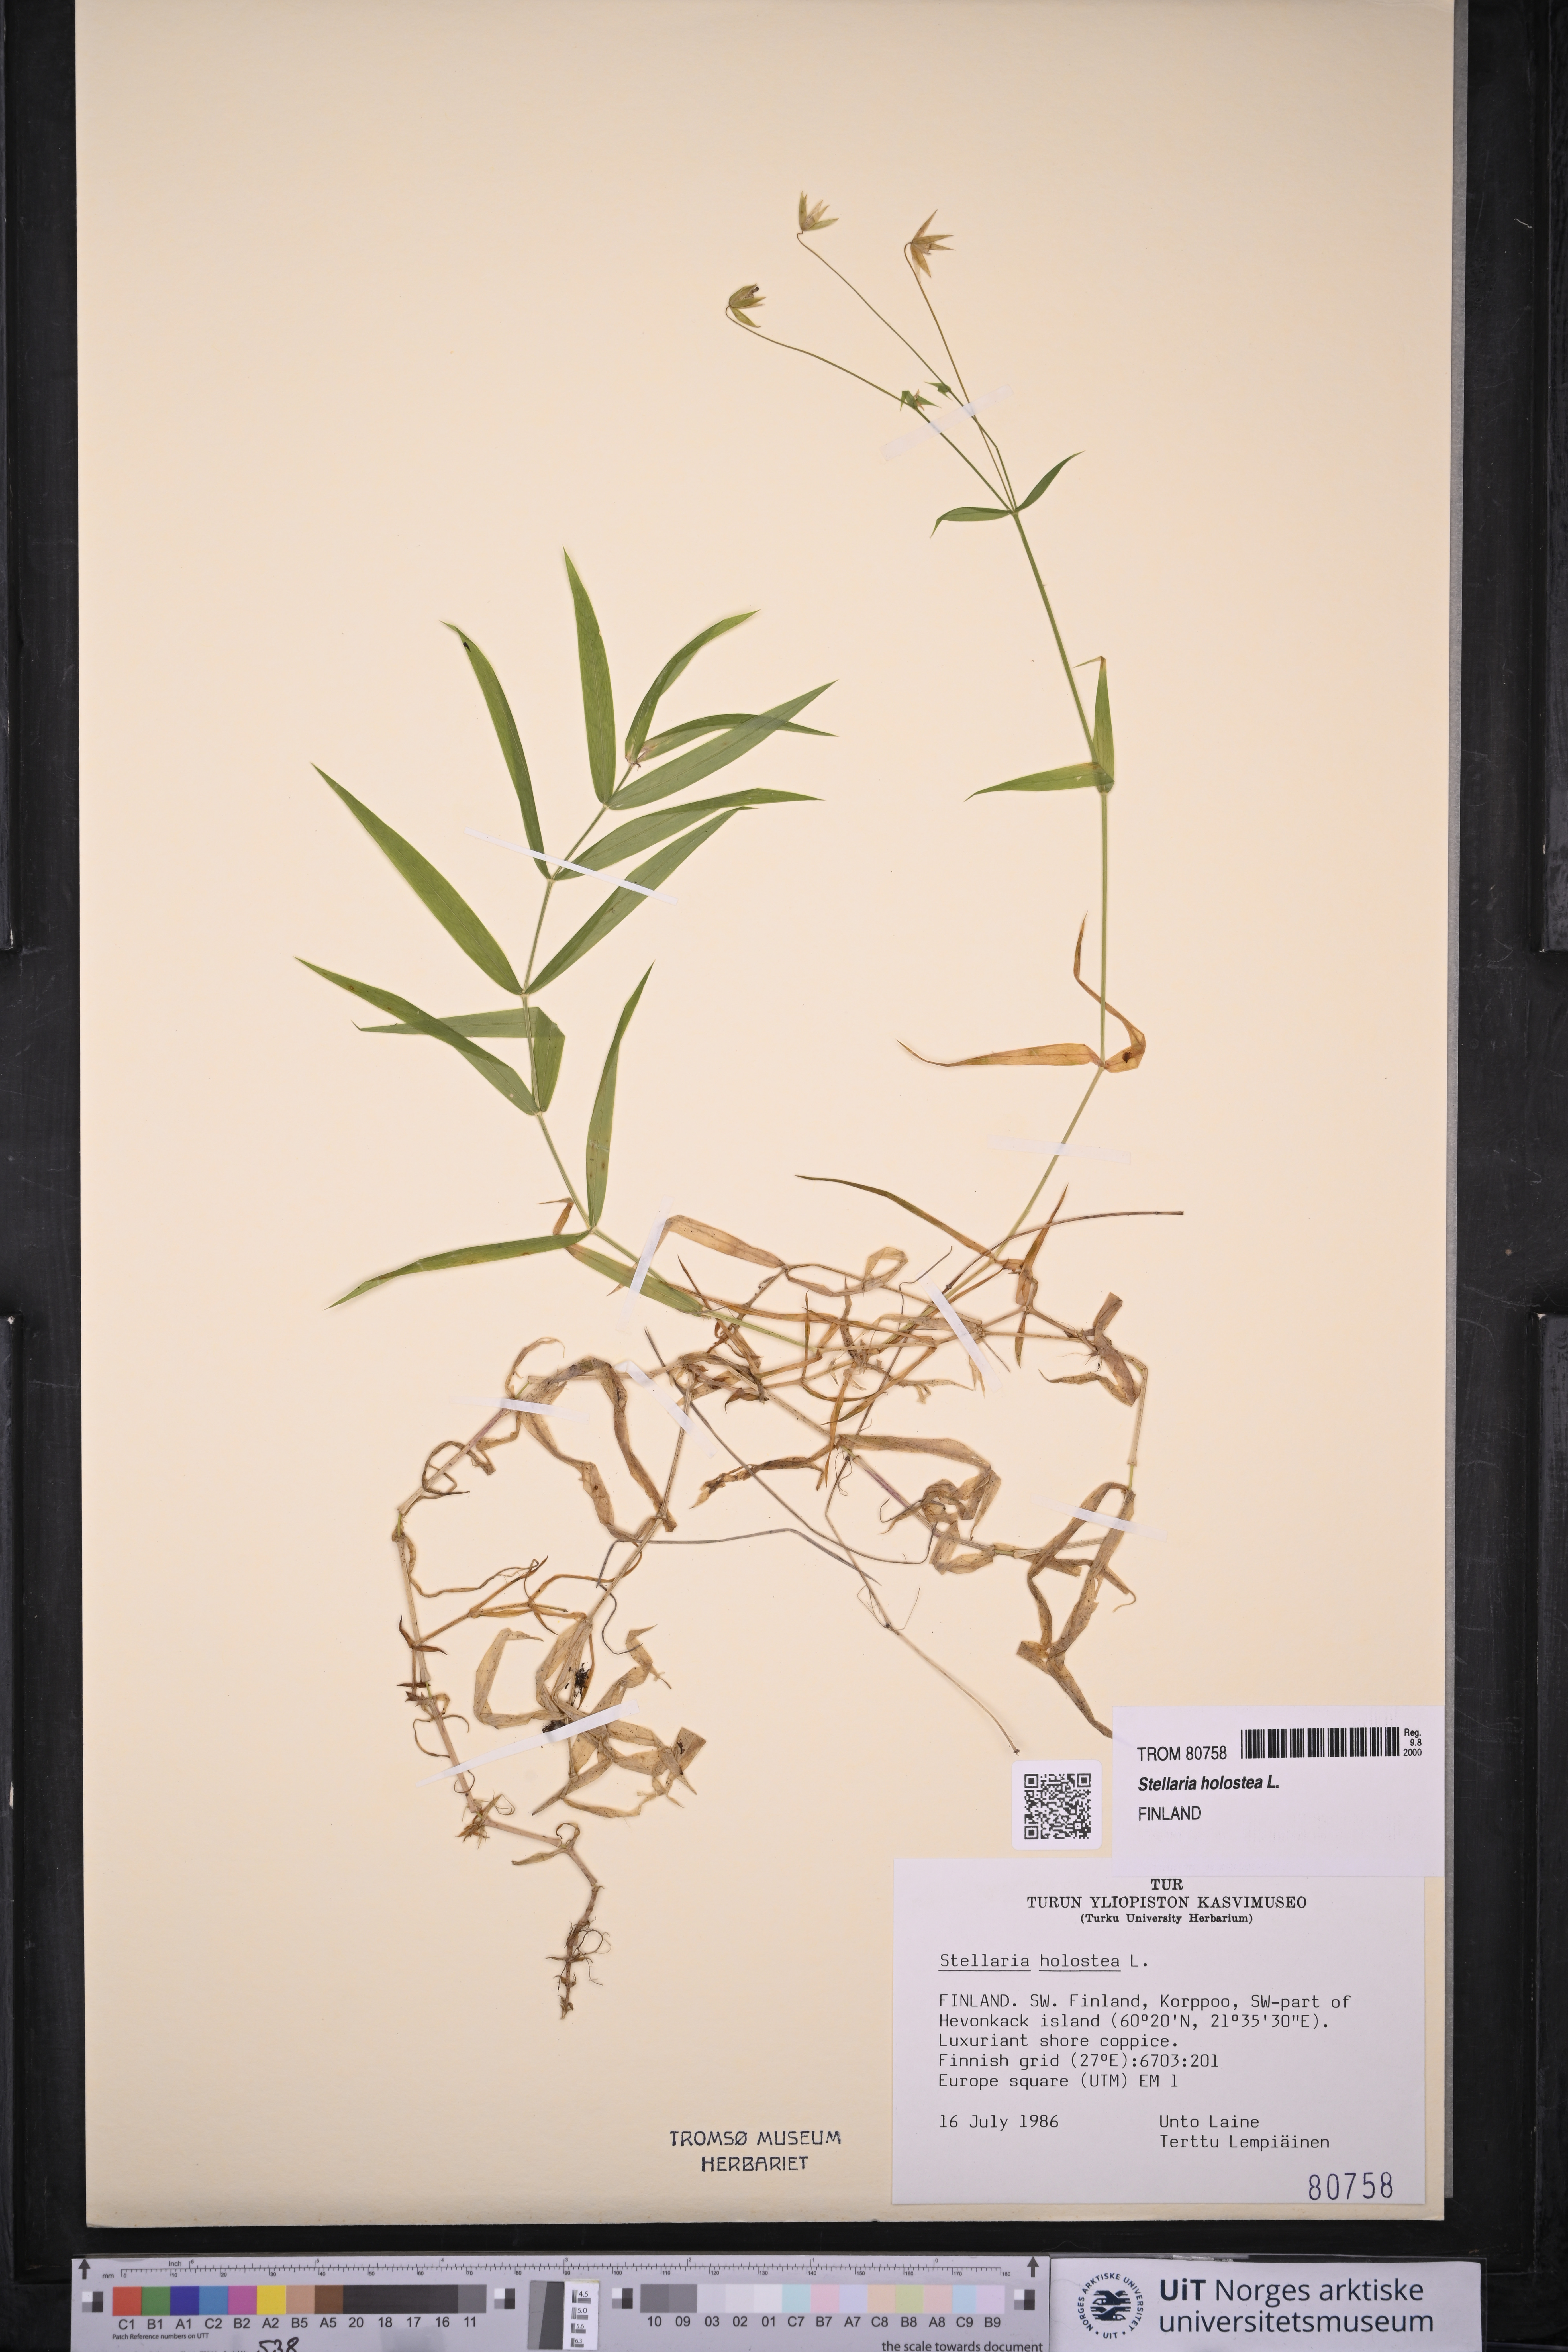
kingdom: Plantae
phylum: Tracheophyta
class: Magnoliopsida
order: Caryophyllales
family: Caryophyllaceae
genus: Rabelera
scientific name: Rabelera holostea
